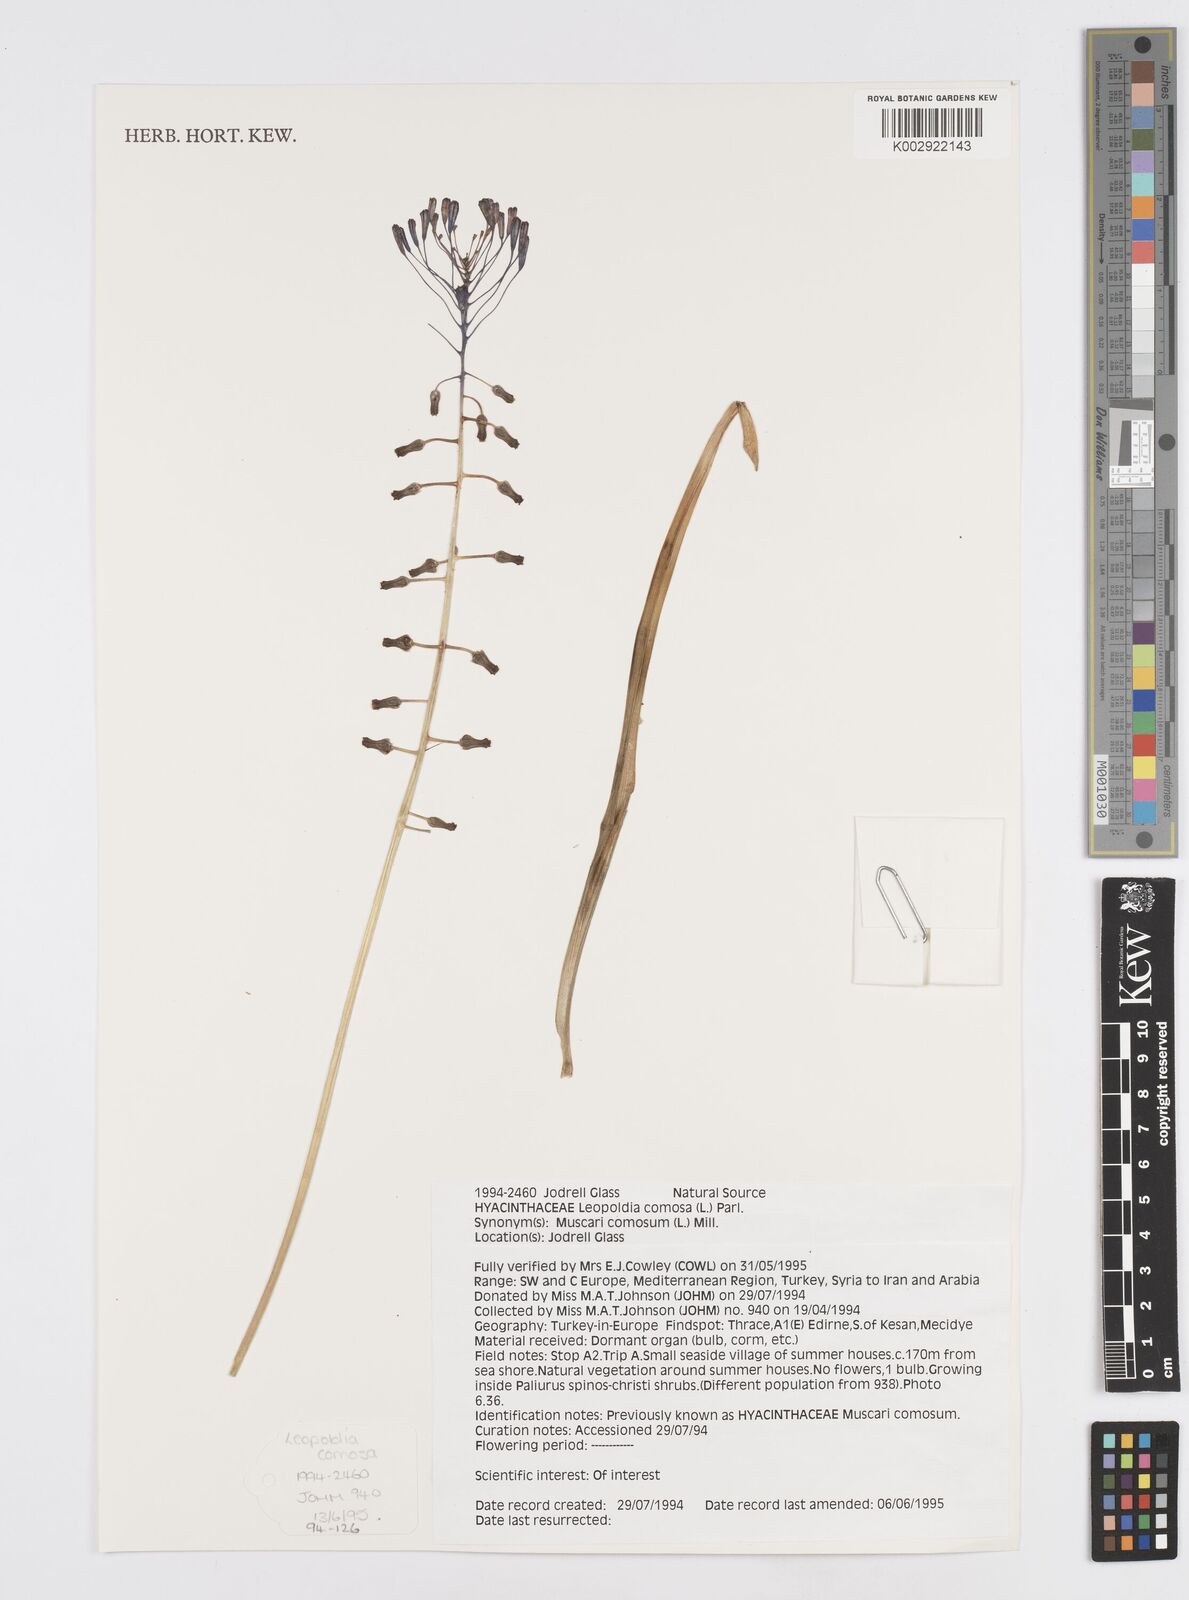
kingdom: Plantae
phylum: Tracheophyta
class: Liliopsida
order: Asparagales
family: Asparagaceae
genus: Muscari
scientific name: Muscari comosum
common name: Tassel hyacinth
